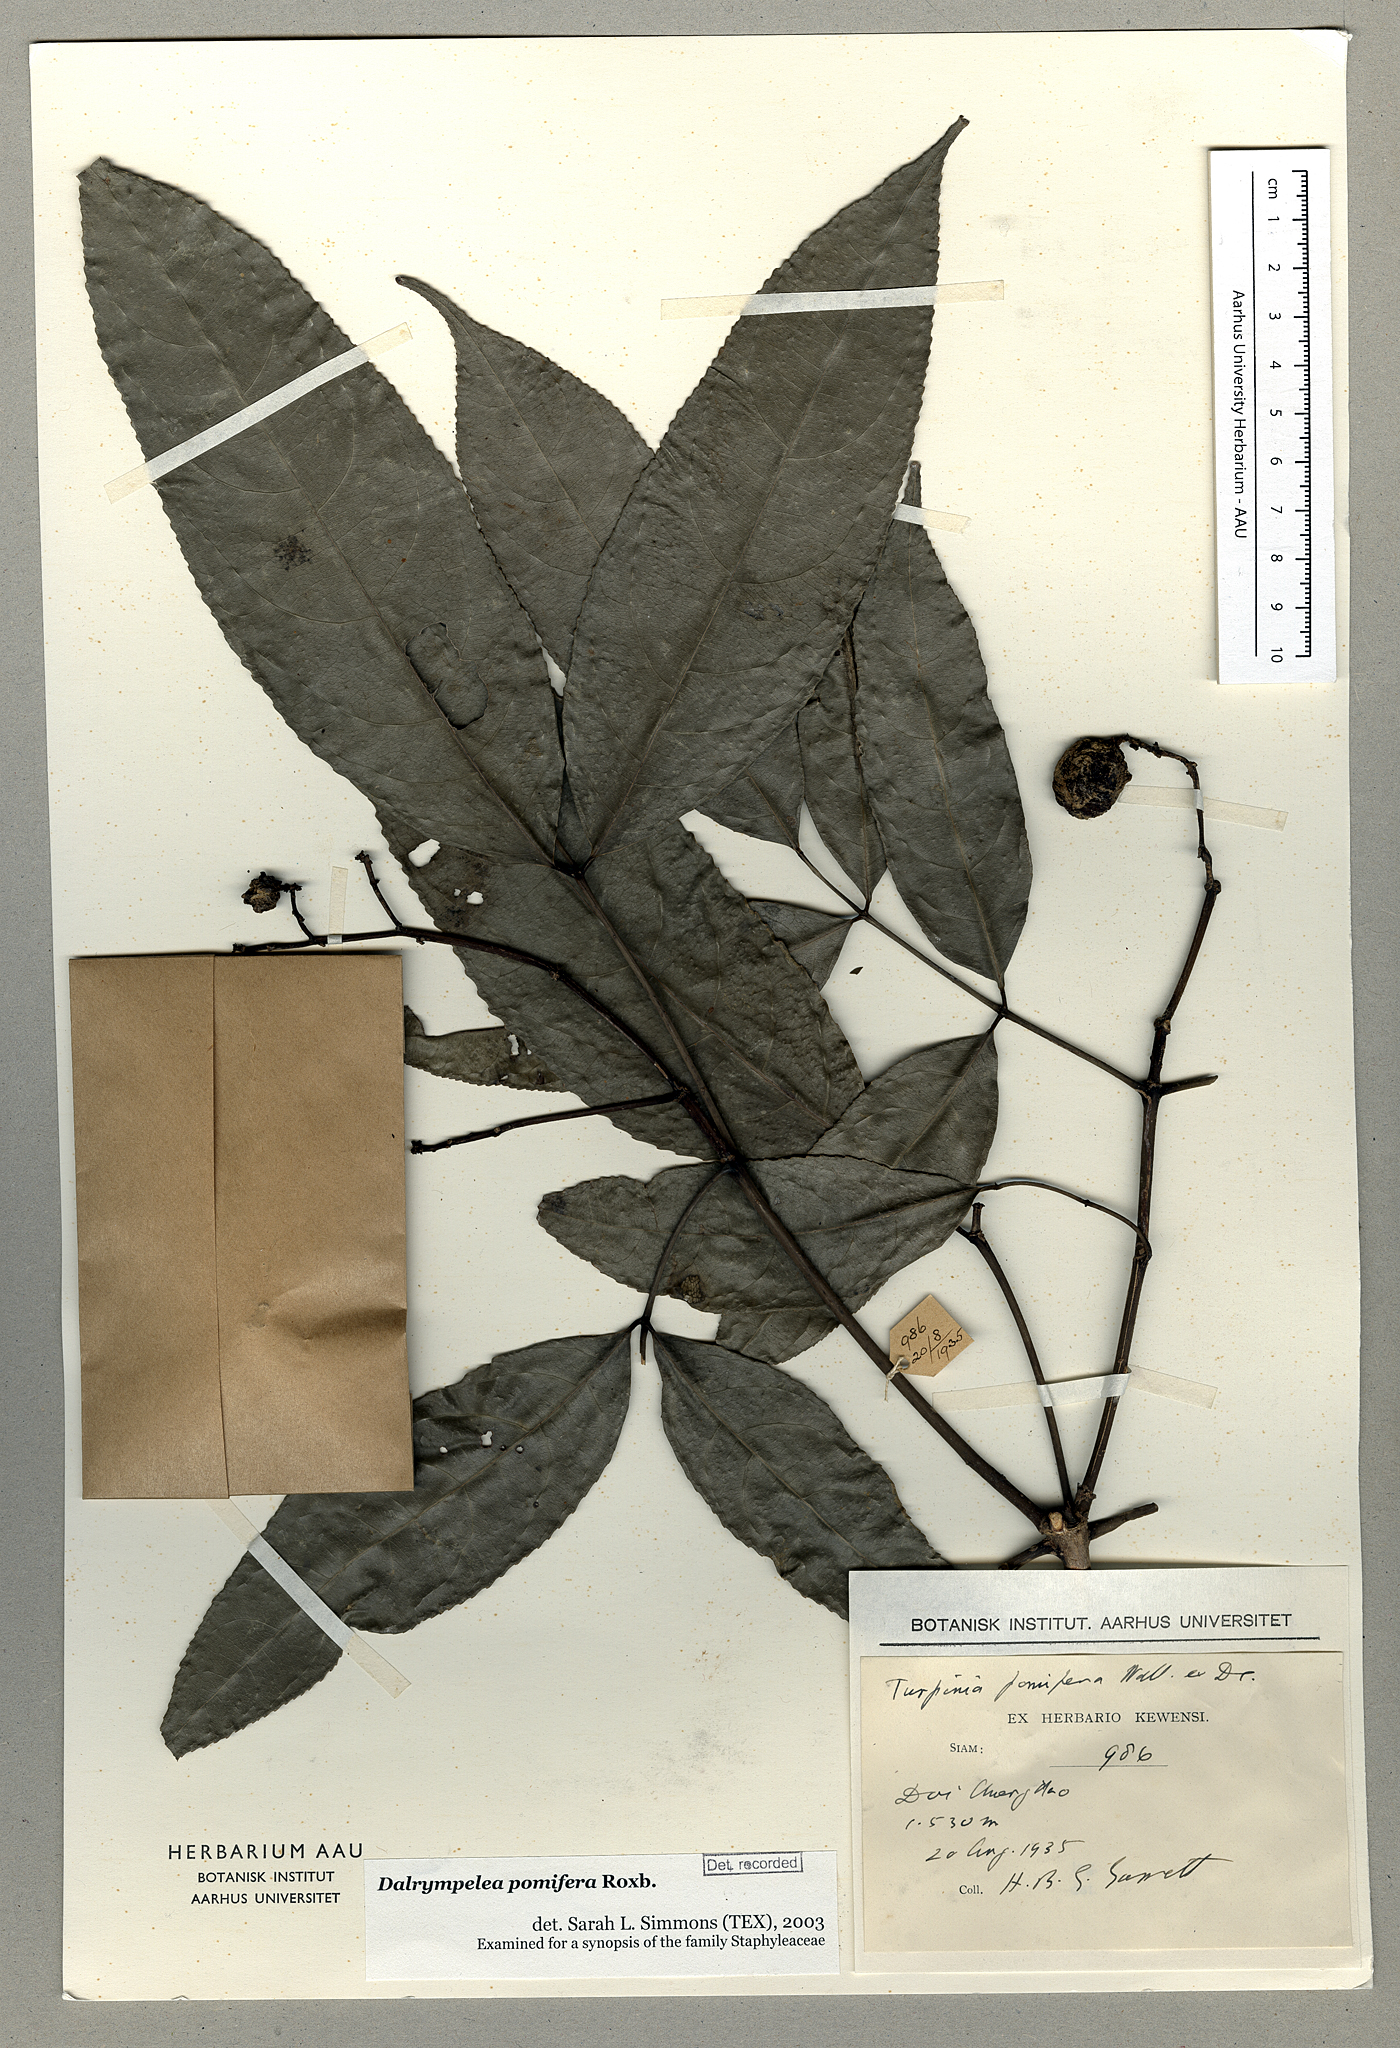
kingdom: Plantae
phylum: Tracheophyta
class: Magnoliopsida
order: Crossosomatales
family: Staphyleaceae
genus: Dalrympelea
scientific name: Dalrympelea pomifera
